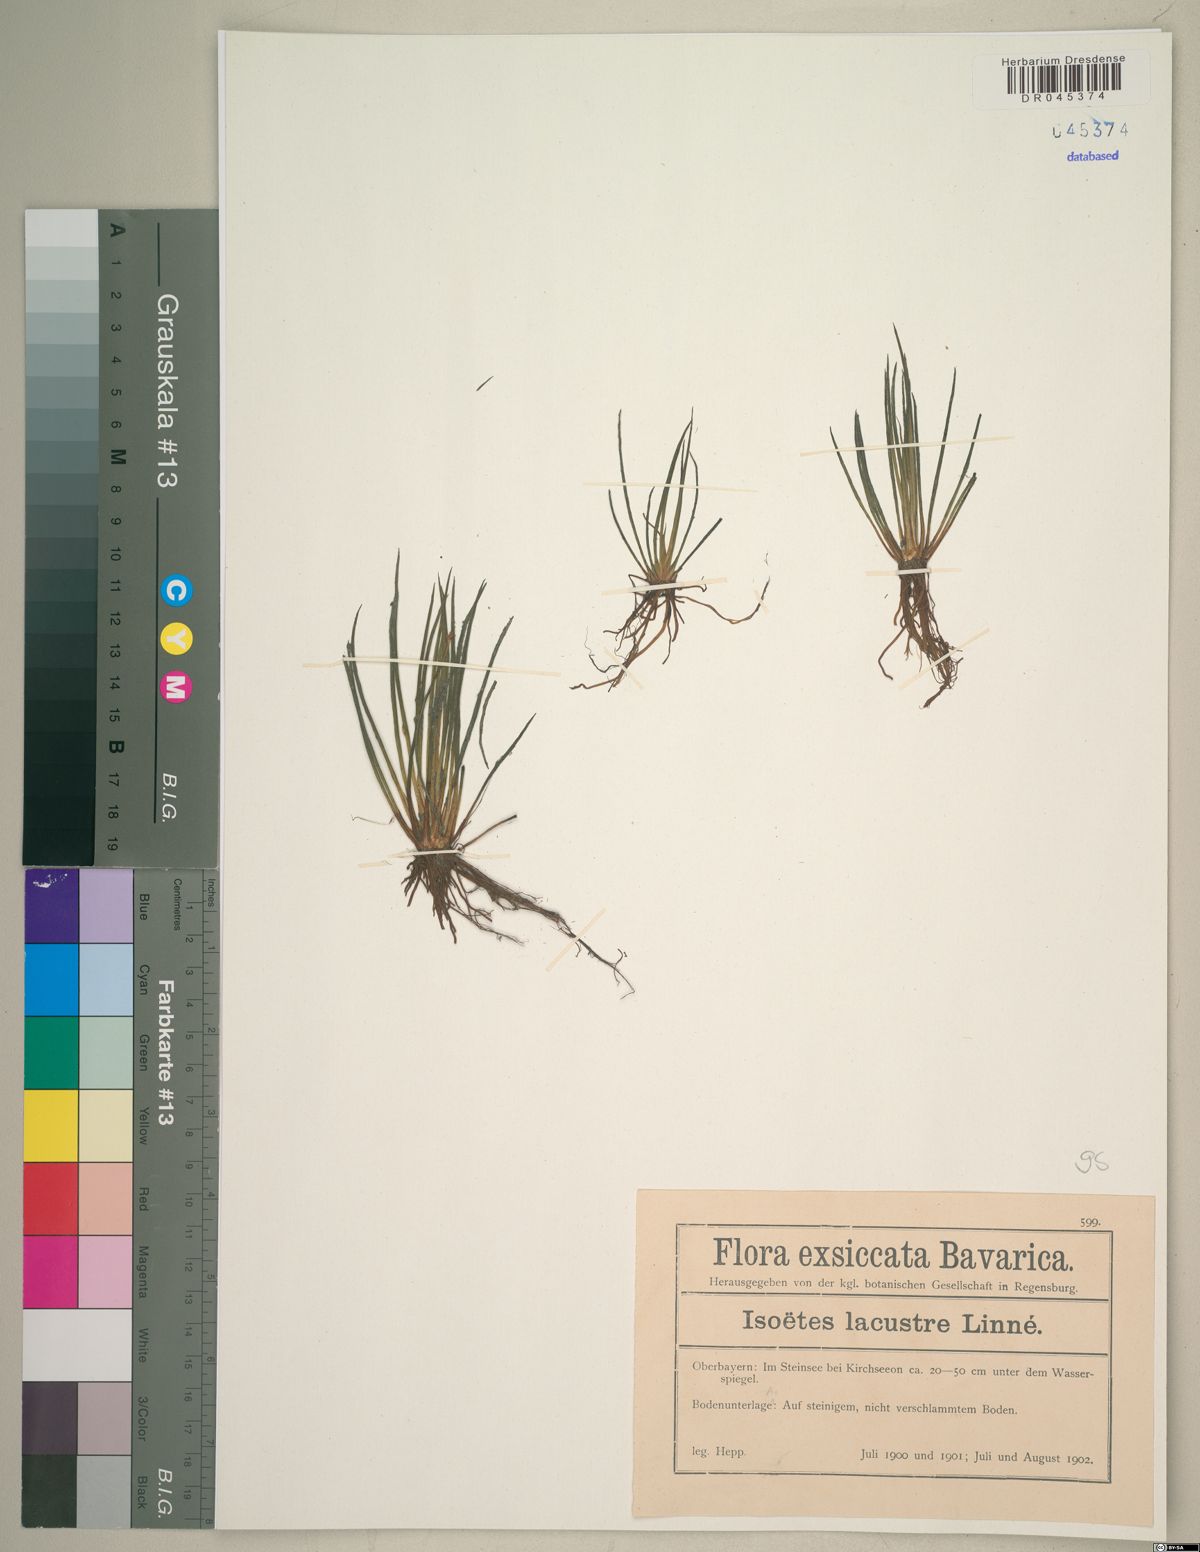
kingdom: Plantae
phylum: Tracheophyta
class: Lycopodiopsida
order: Isoetales
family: Isoetaceae
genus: Isoetes
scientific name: Isoetes lacustris
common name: Common quillwort
